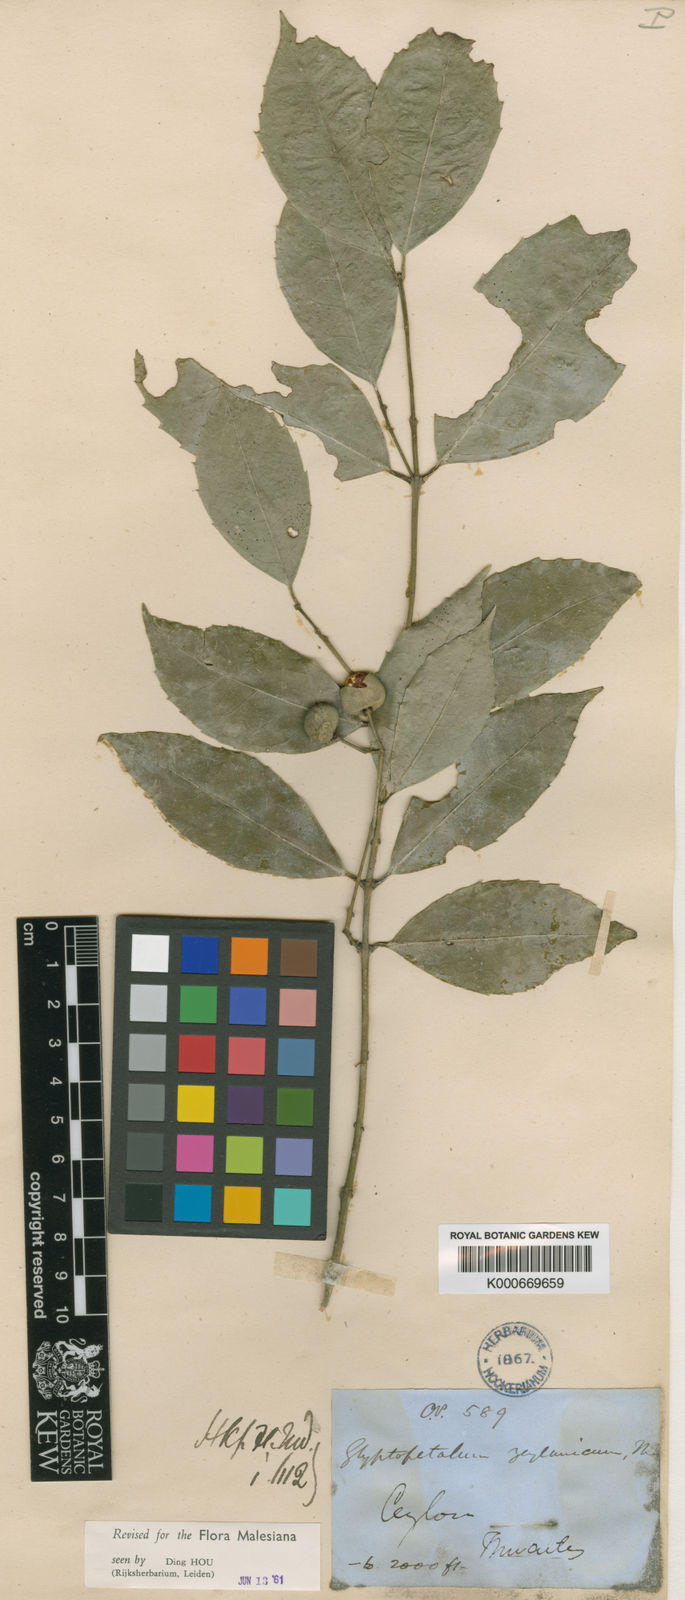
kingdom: Plantae
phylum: Tracheophyta
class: Magnoliopsida
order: Celastrales
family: Celastraceae
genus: Euonymus
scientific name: Euonymus zeylanicus
